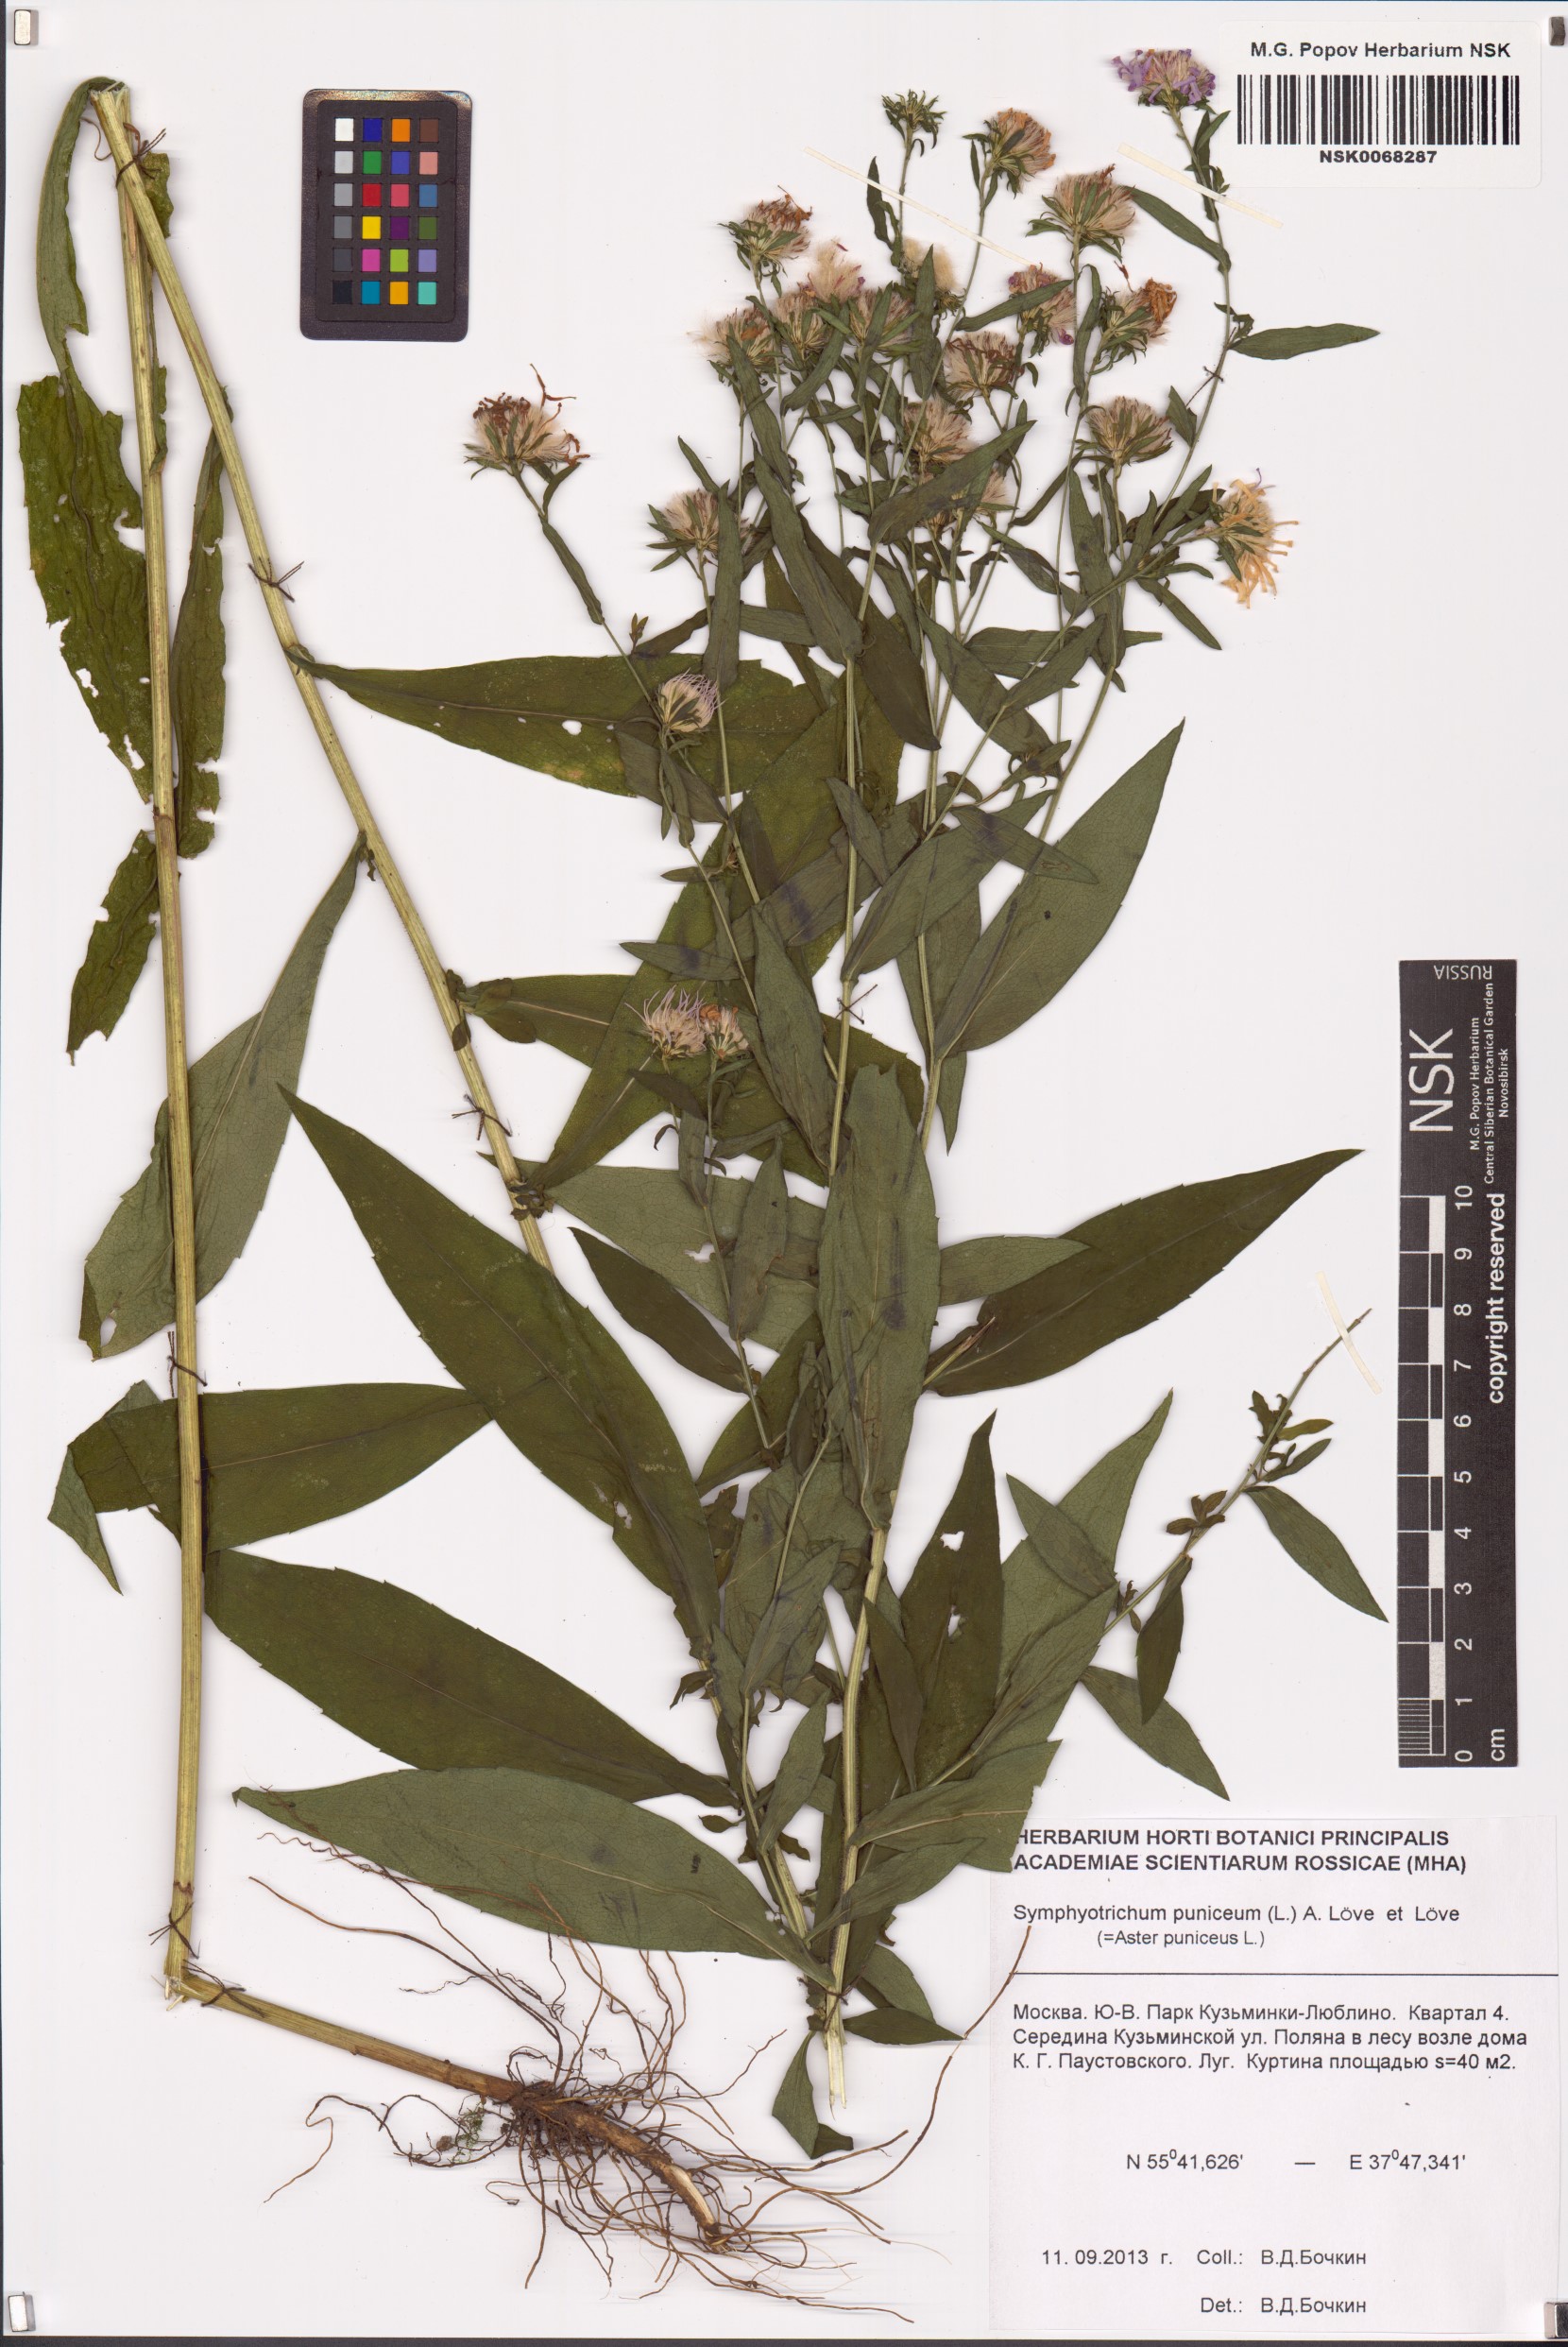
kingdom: Plantae
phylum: Tracheophyta
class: Magnoliopsida
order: Asterales
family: Asteraceae
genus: Symphyotrichum
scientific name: Symphyotrichum puniceum
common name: Bog aster
